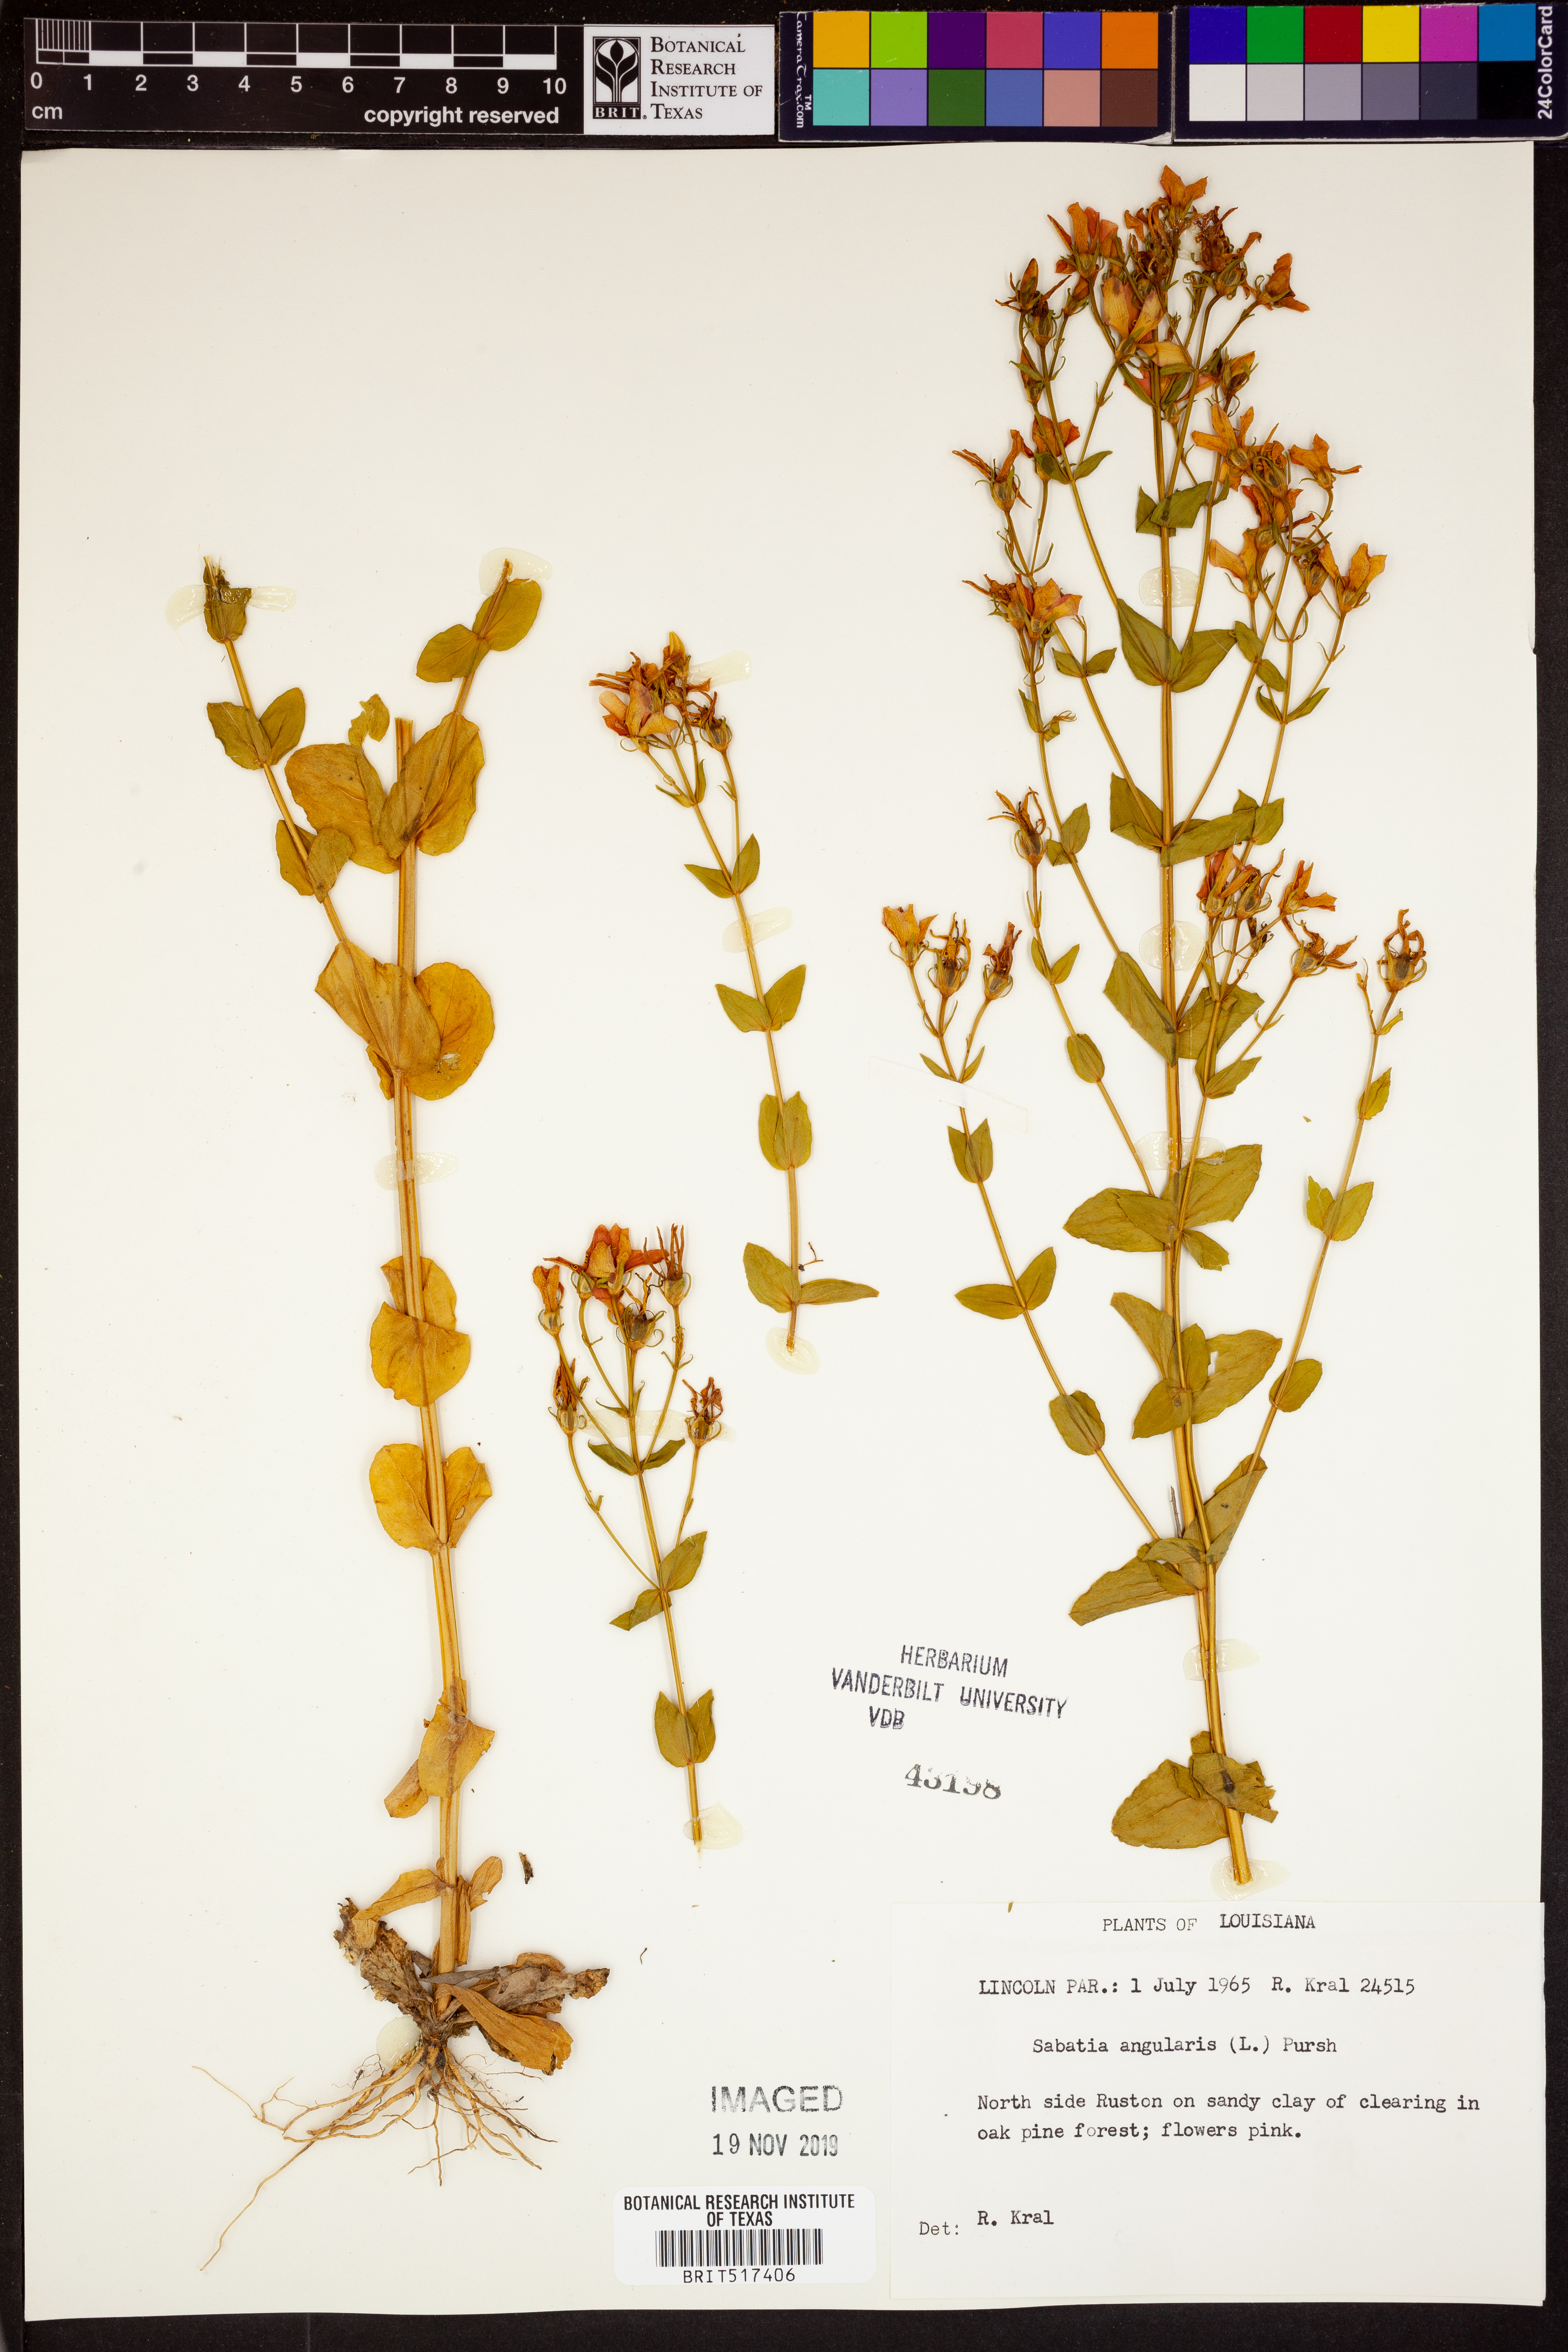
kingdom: Plantae
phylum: Tracheophyta
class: Magnoliopsida
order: Gentianales
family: Gentianaceae
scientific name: Gentianaceae
